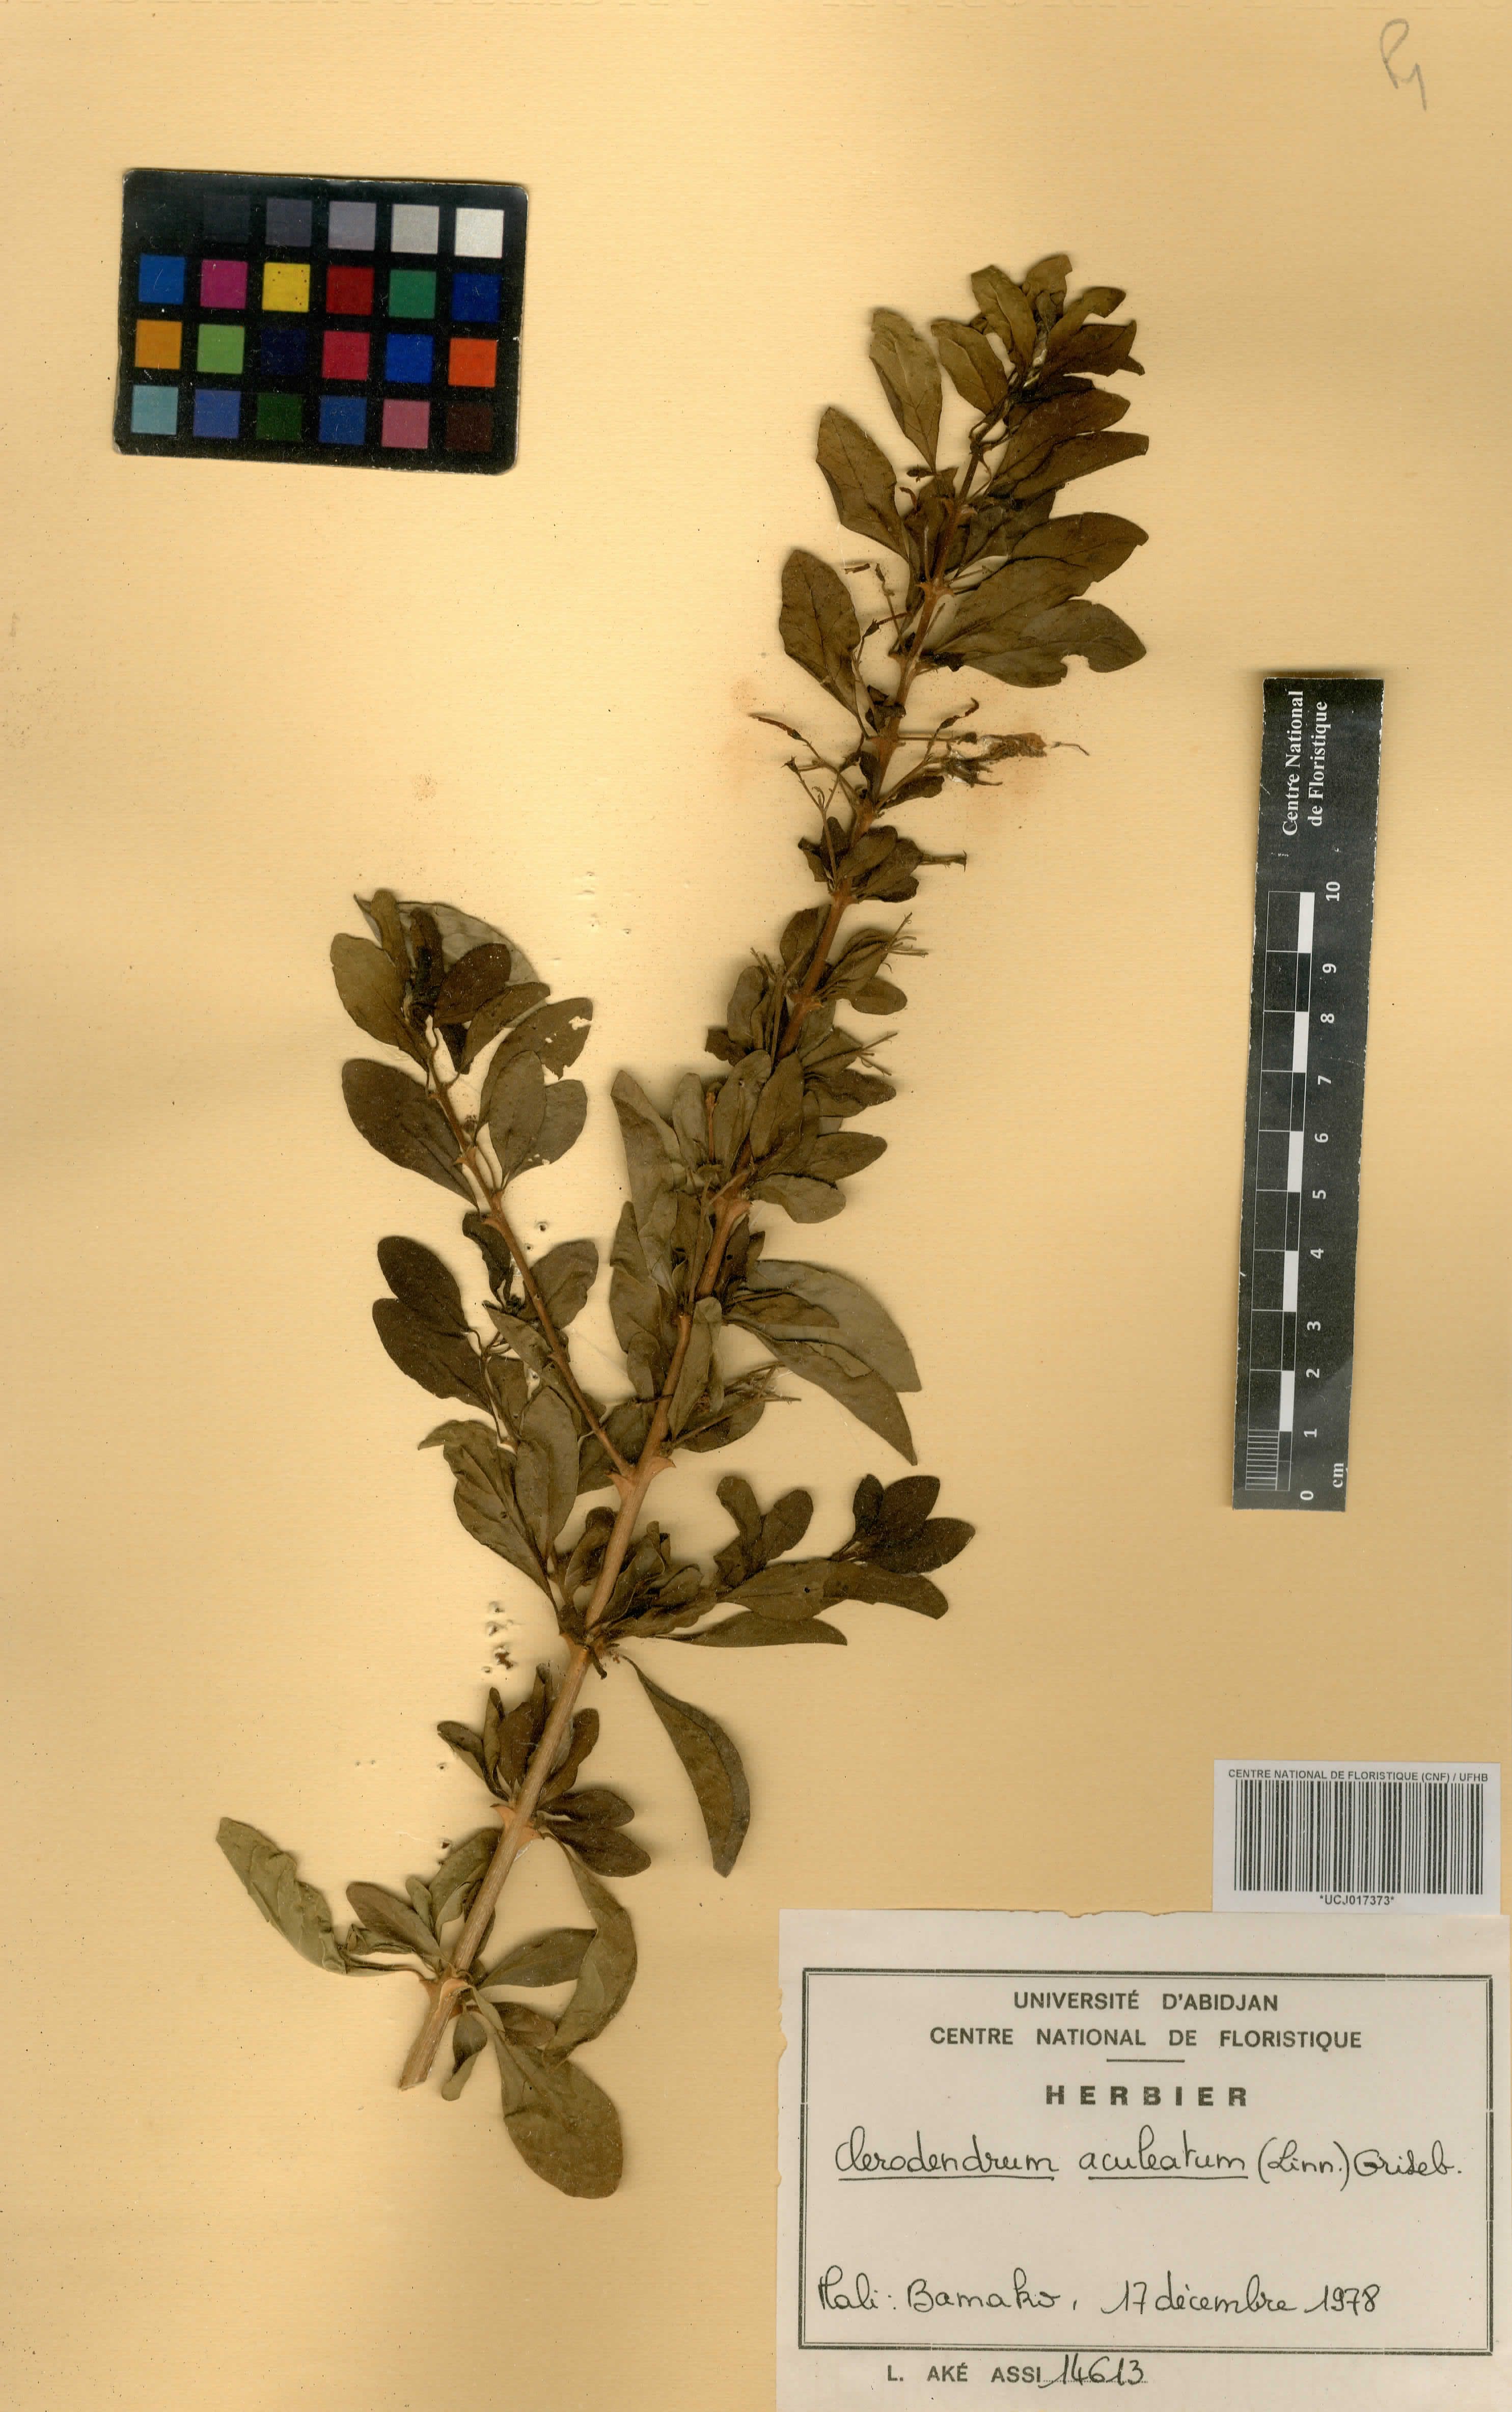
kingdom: Plantae
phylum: Tracheophyta
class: Magnoliopsida
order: Lamiales
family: Lamiaceae
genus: Clerodendrum
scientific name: Clerodendrum aculeatum
